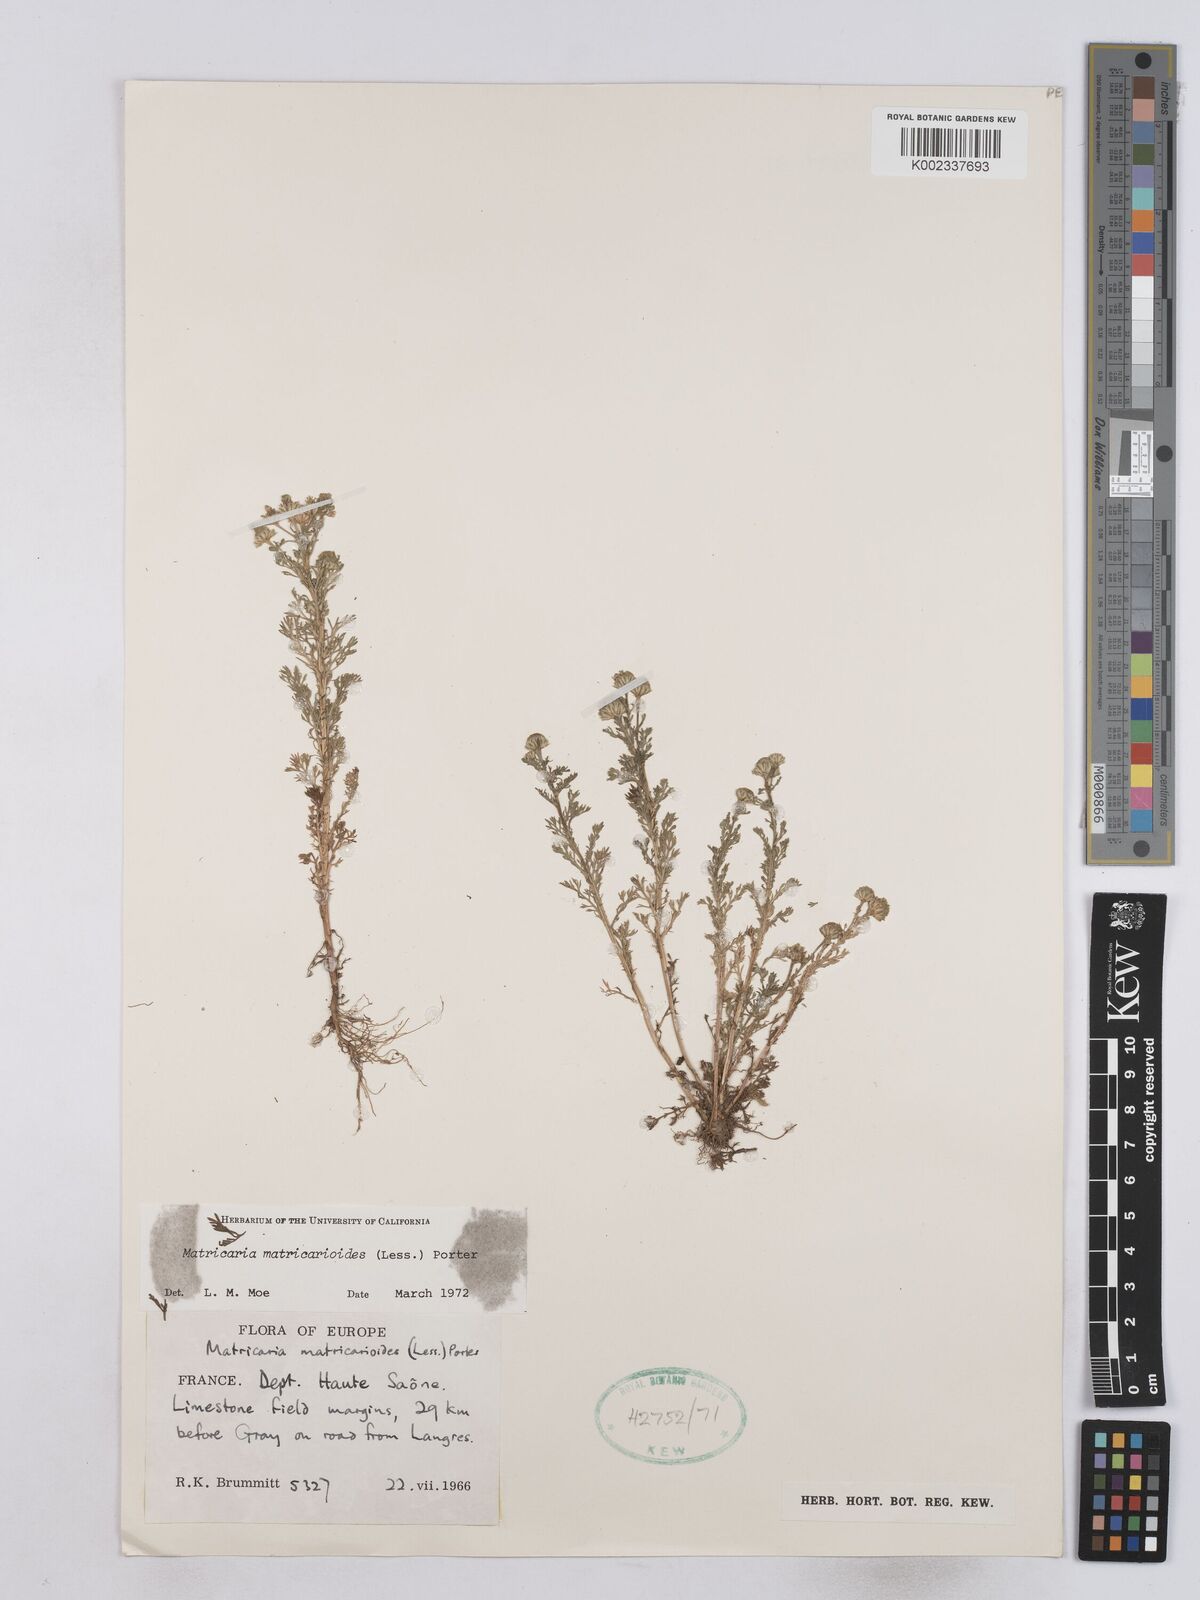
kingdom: Plantae
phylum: Tracheophyta
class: Magnoliopsida
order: Asterales
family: Asteraceae
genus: Matricaria
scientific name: Matricaria discoidea
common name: Disc mayweed
